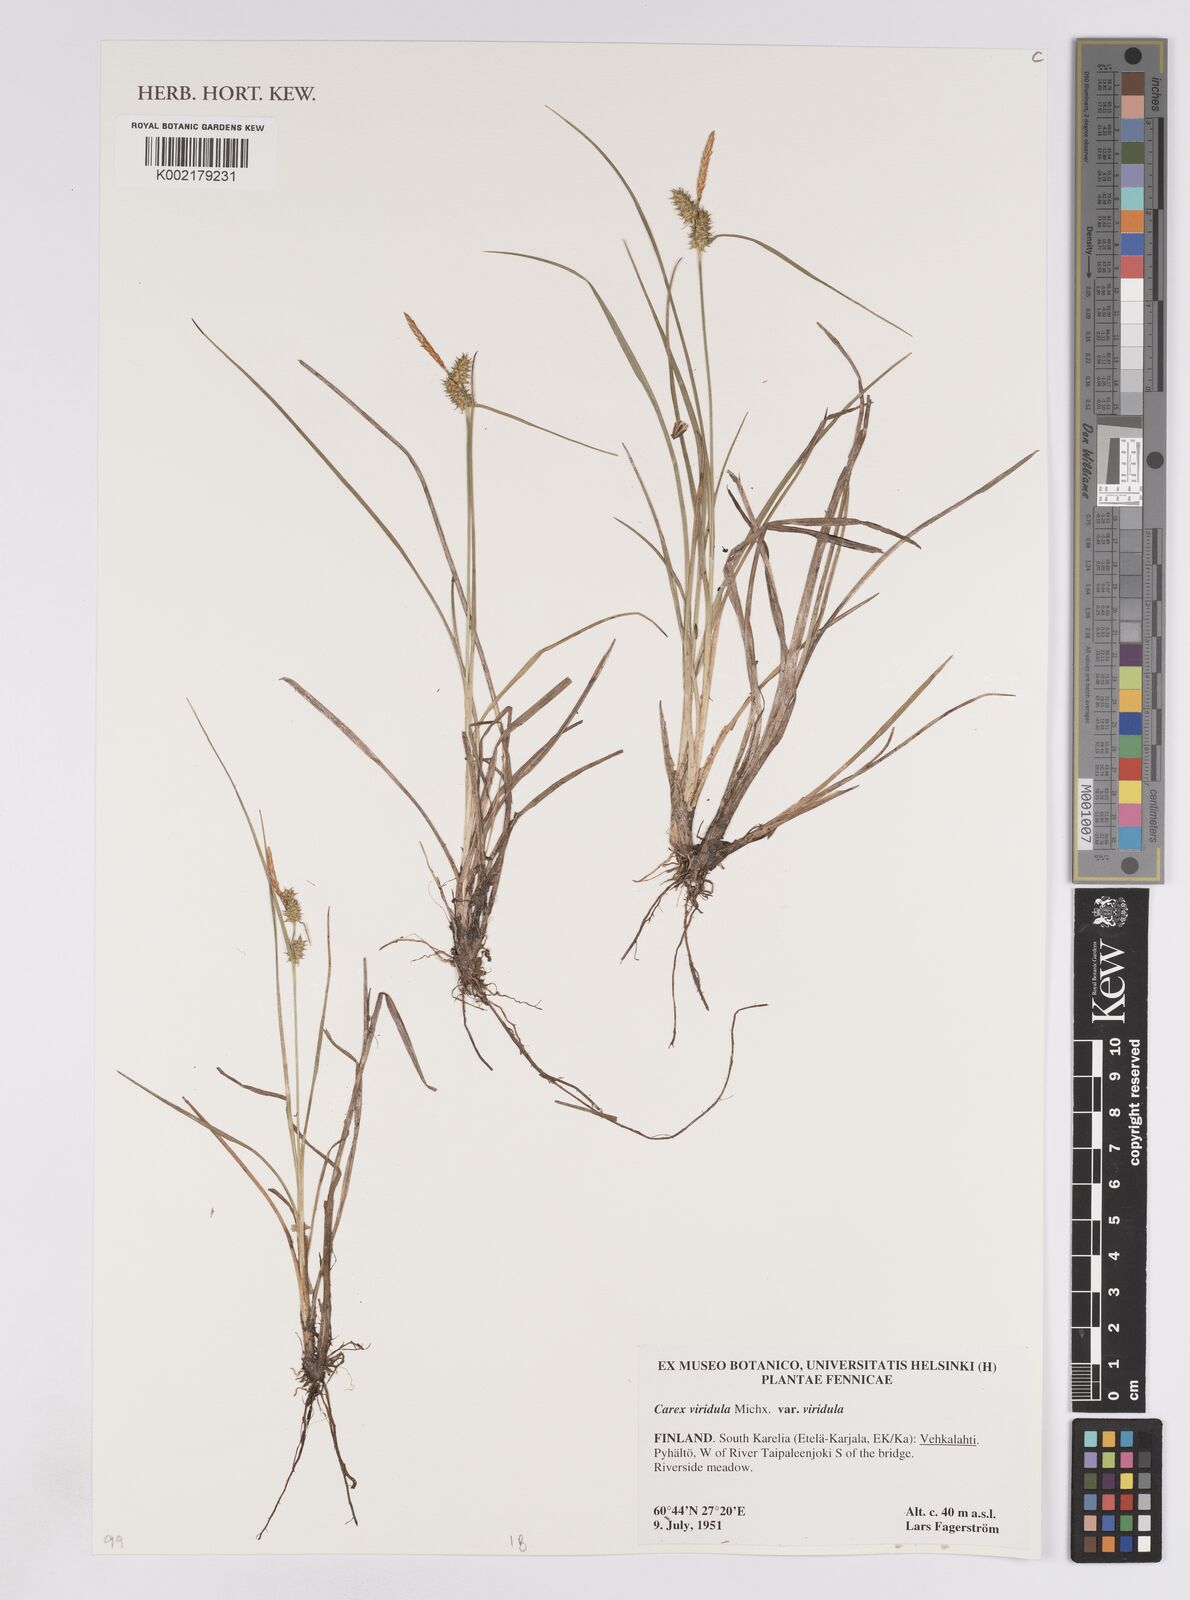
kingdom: Plantae
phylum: Tracheophyta
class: Liliopsida
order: Poales
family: Cyperaceae
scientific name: Cyperaceae
